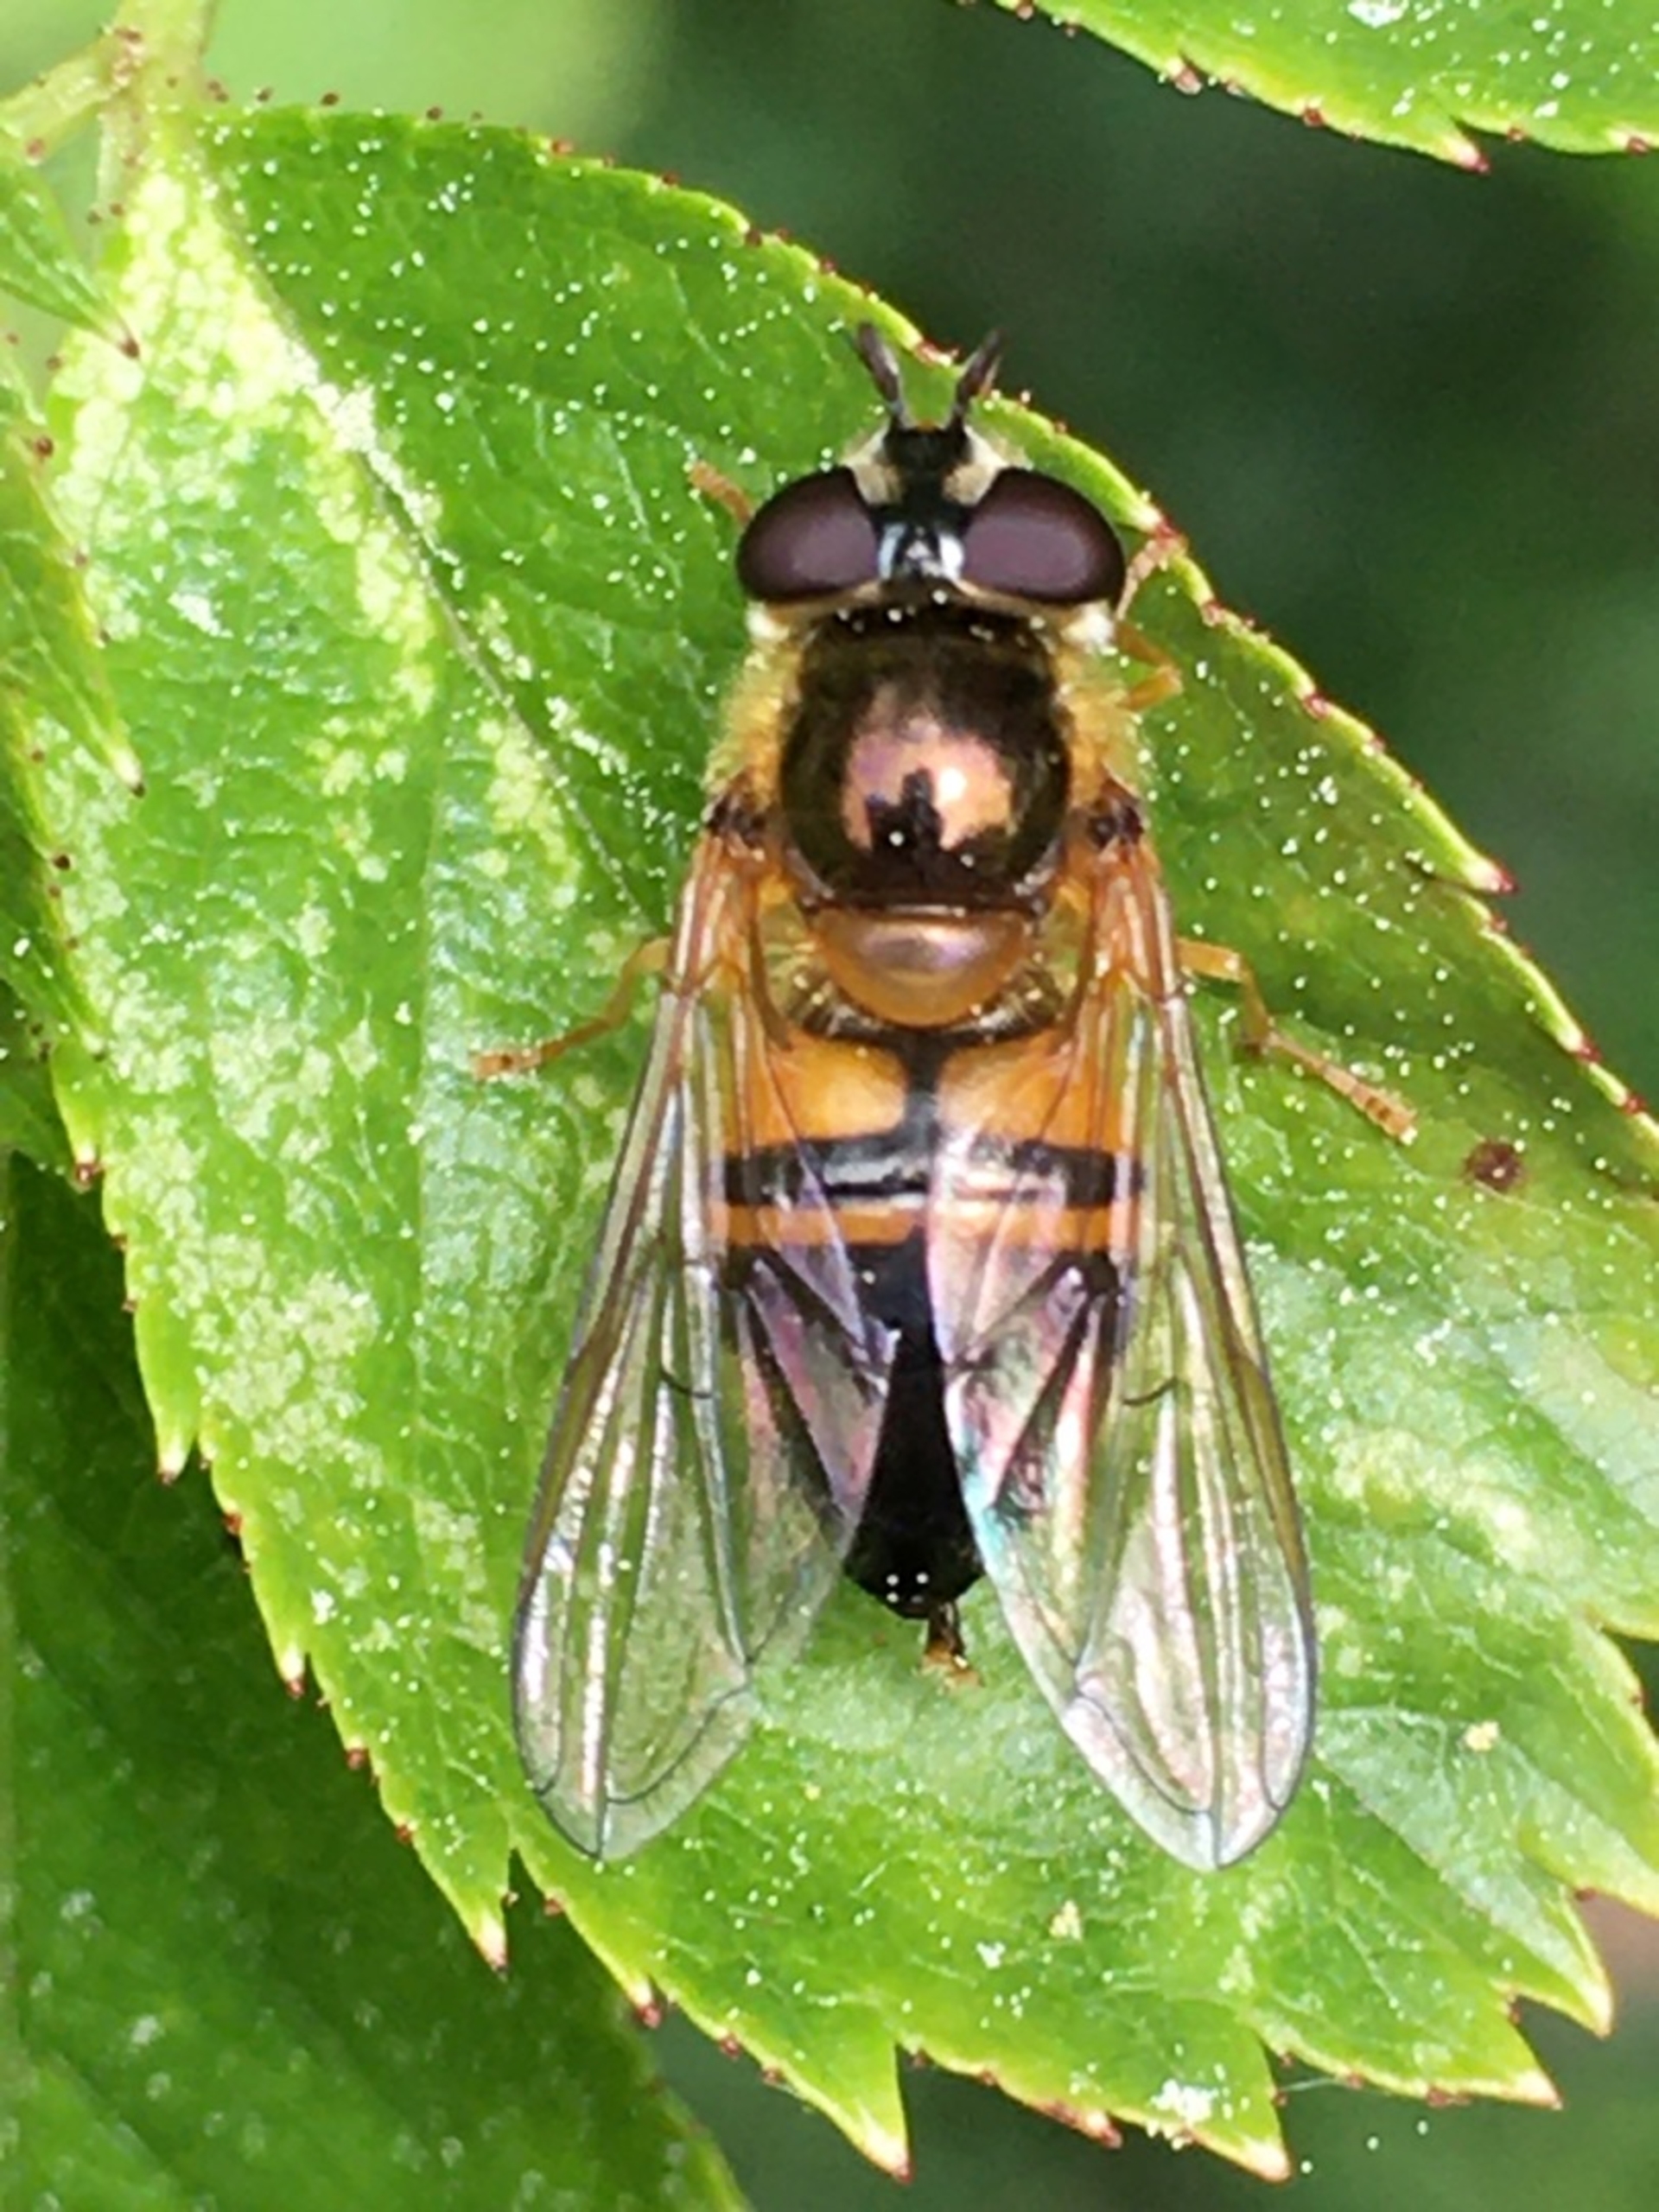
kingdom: Animalia
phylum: Arthropoda
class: Insecta
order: Diptera
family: Syrphidae
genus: Epistrophe
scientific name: Epistrophe eligans
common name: Rødgul glanssvirreflue
